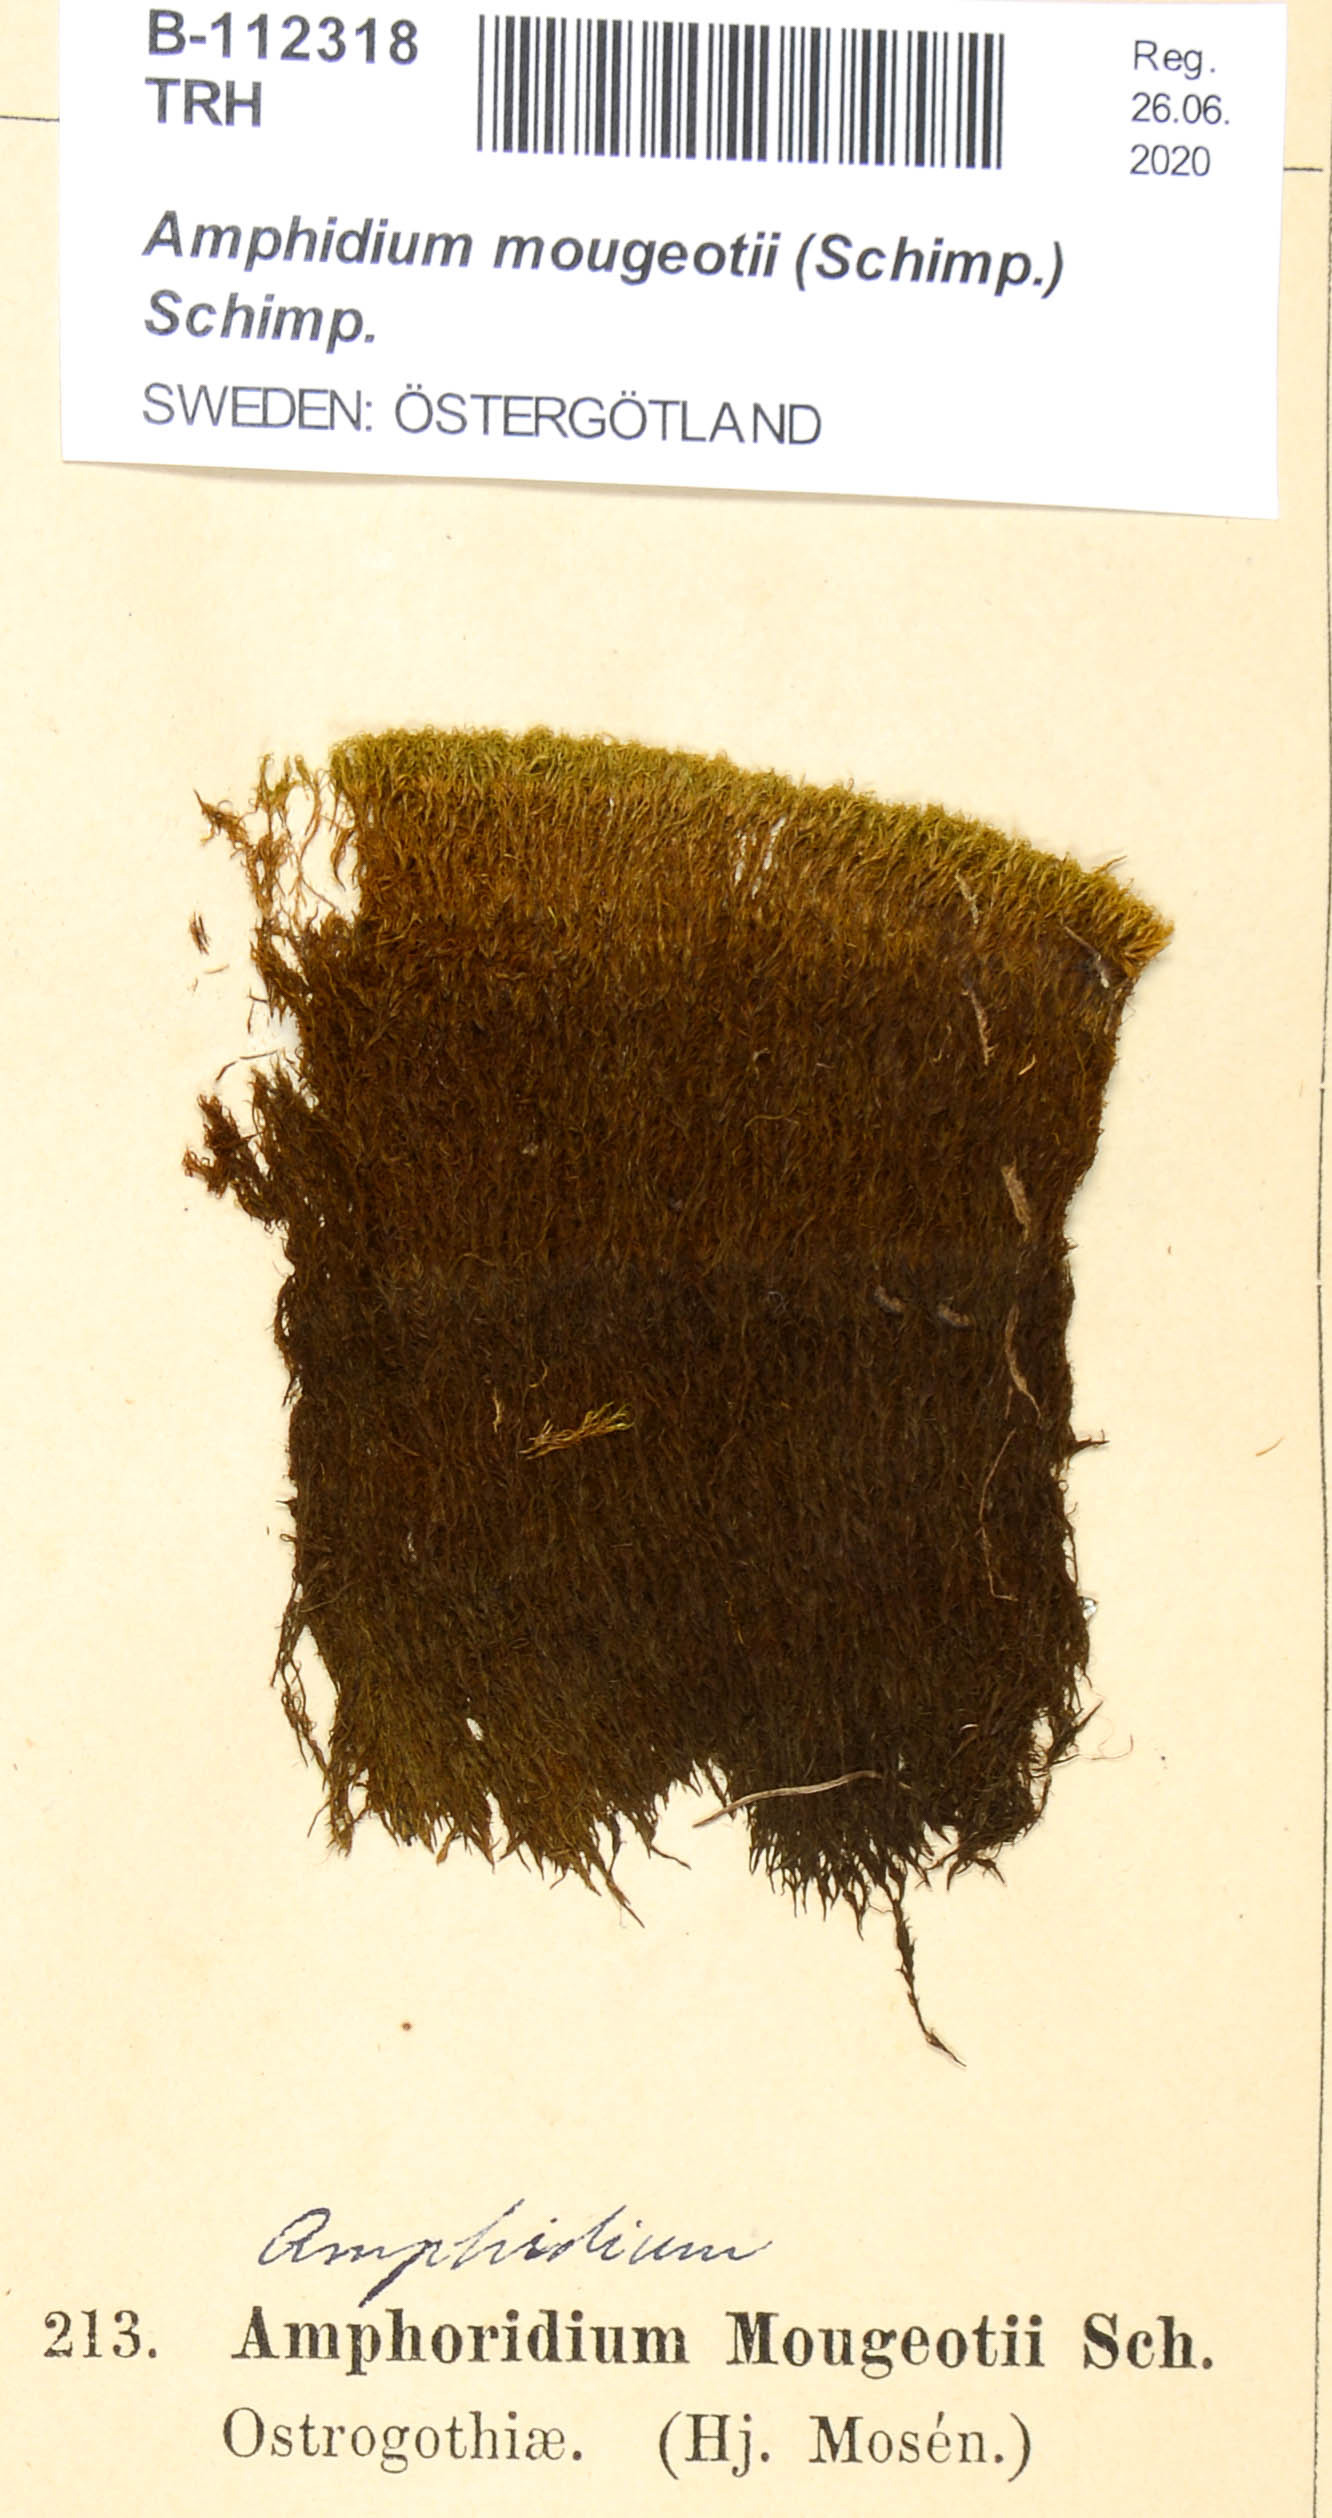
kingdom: Plantae
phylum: Bryophyta
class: Bryopsida
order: Dicranales
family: Amphidiaceae
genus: Amphidium
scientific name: Amphidium mougeotii
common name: Mougeot's yoke moss
